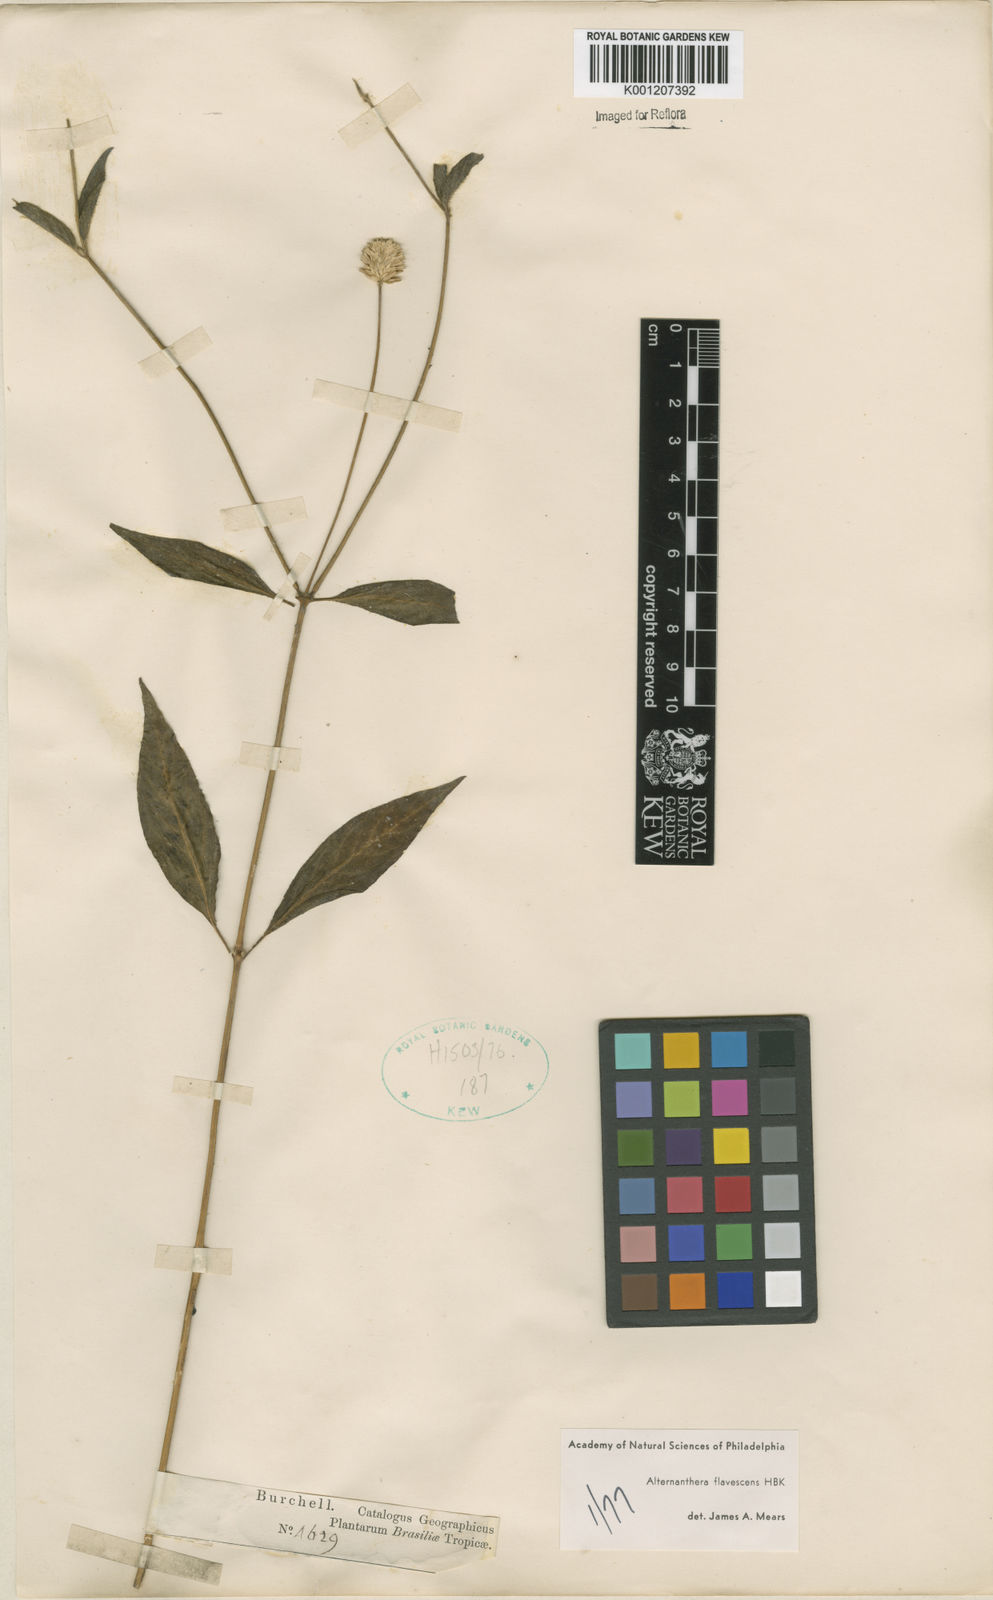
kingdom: Plantae
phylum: Tracheophyta
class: Magnoliopsida
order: Caryophyllales
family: Amaranthaceae
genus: Alternanthera
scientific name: Alternanthera flavescens
